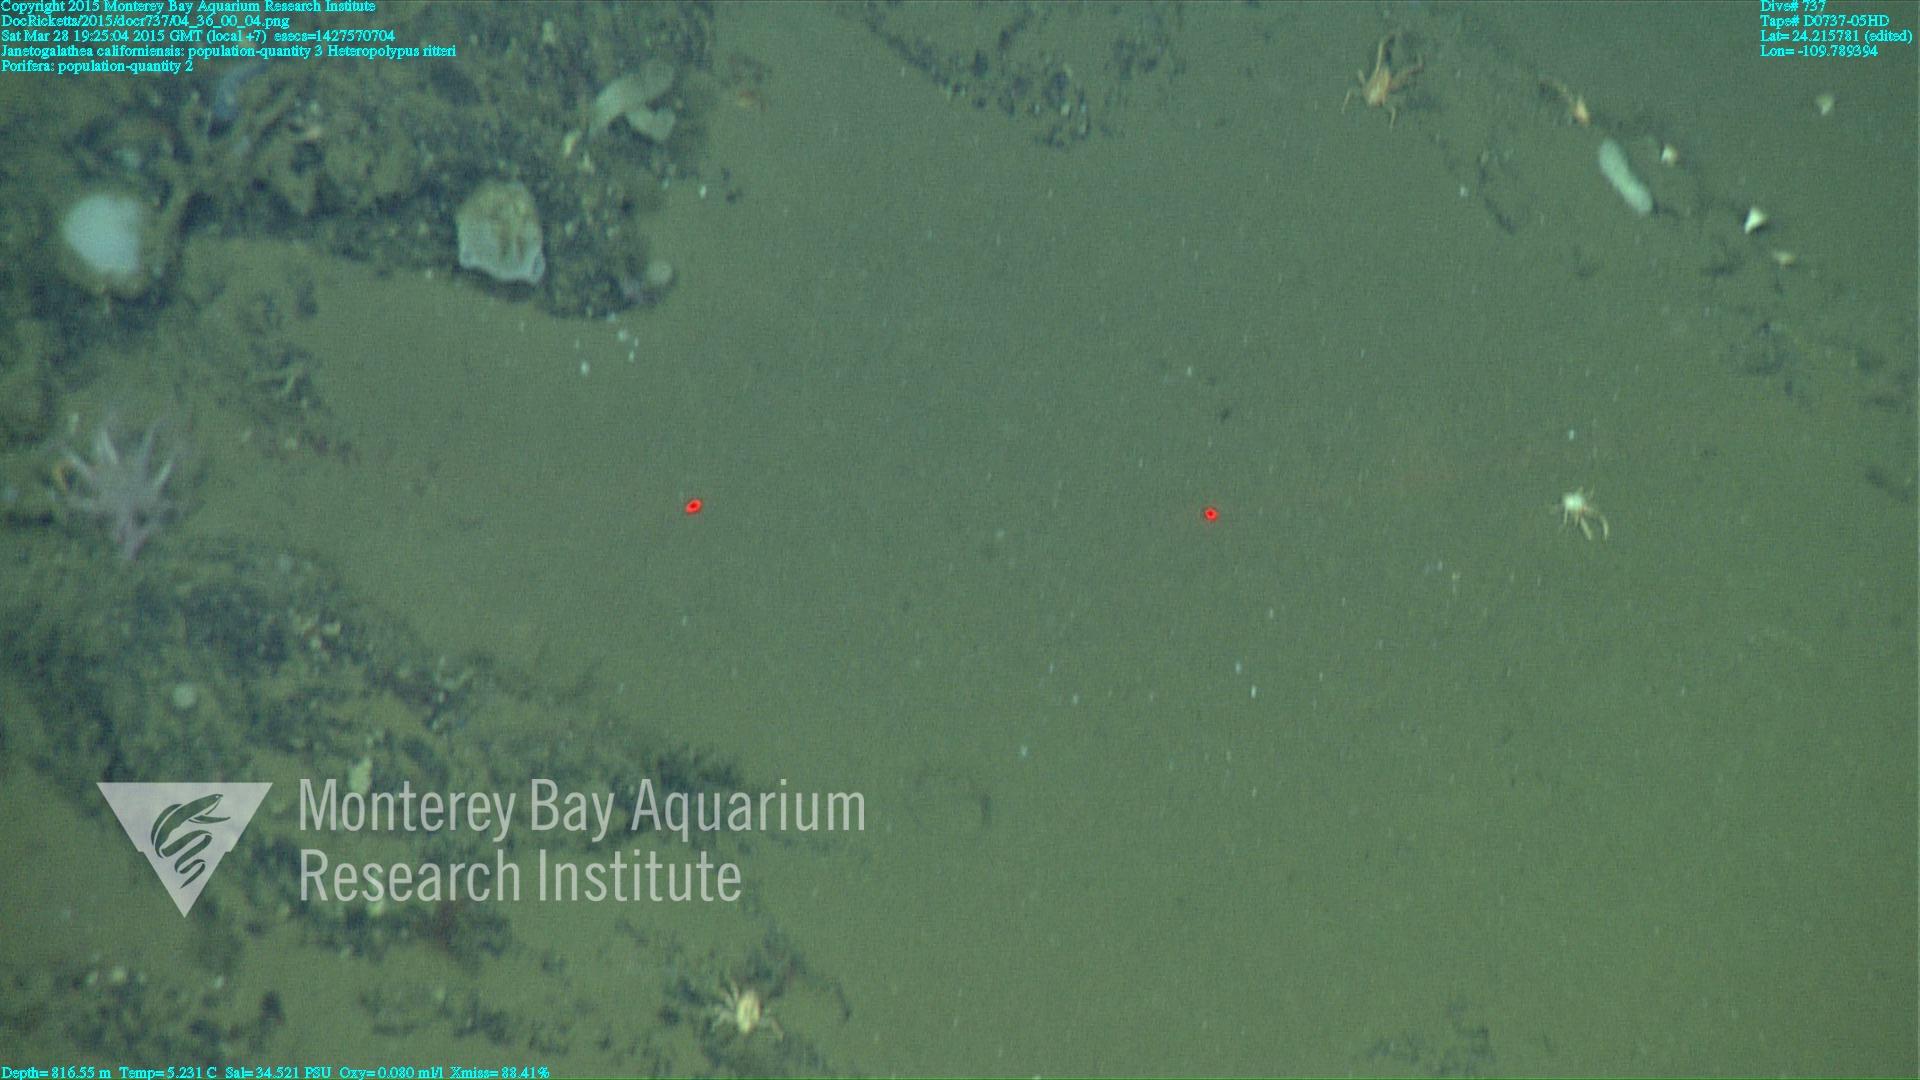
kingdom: Animalia
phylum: Cnidaria
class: Anthozoa
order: Scleralcyonacea
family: Coralliidae
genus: Heteropolypus
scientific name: Heteropolypus ritteri
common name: Ritter's soft coral
